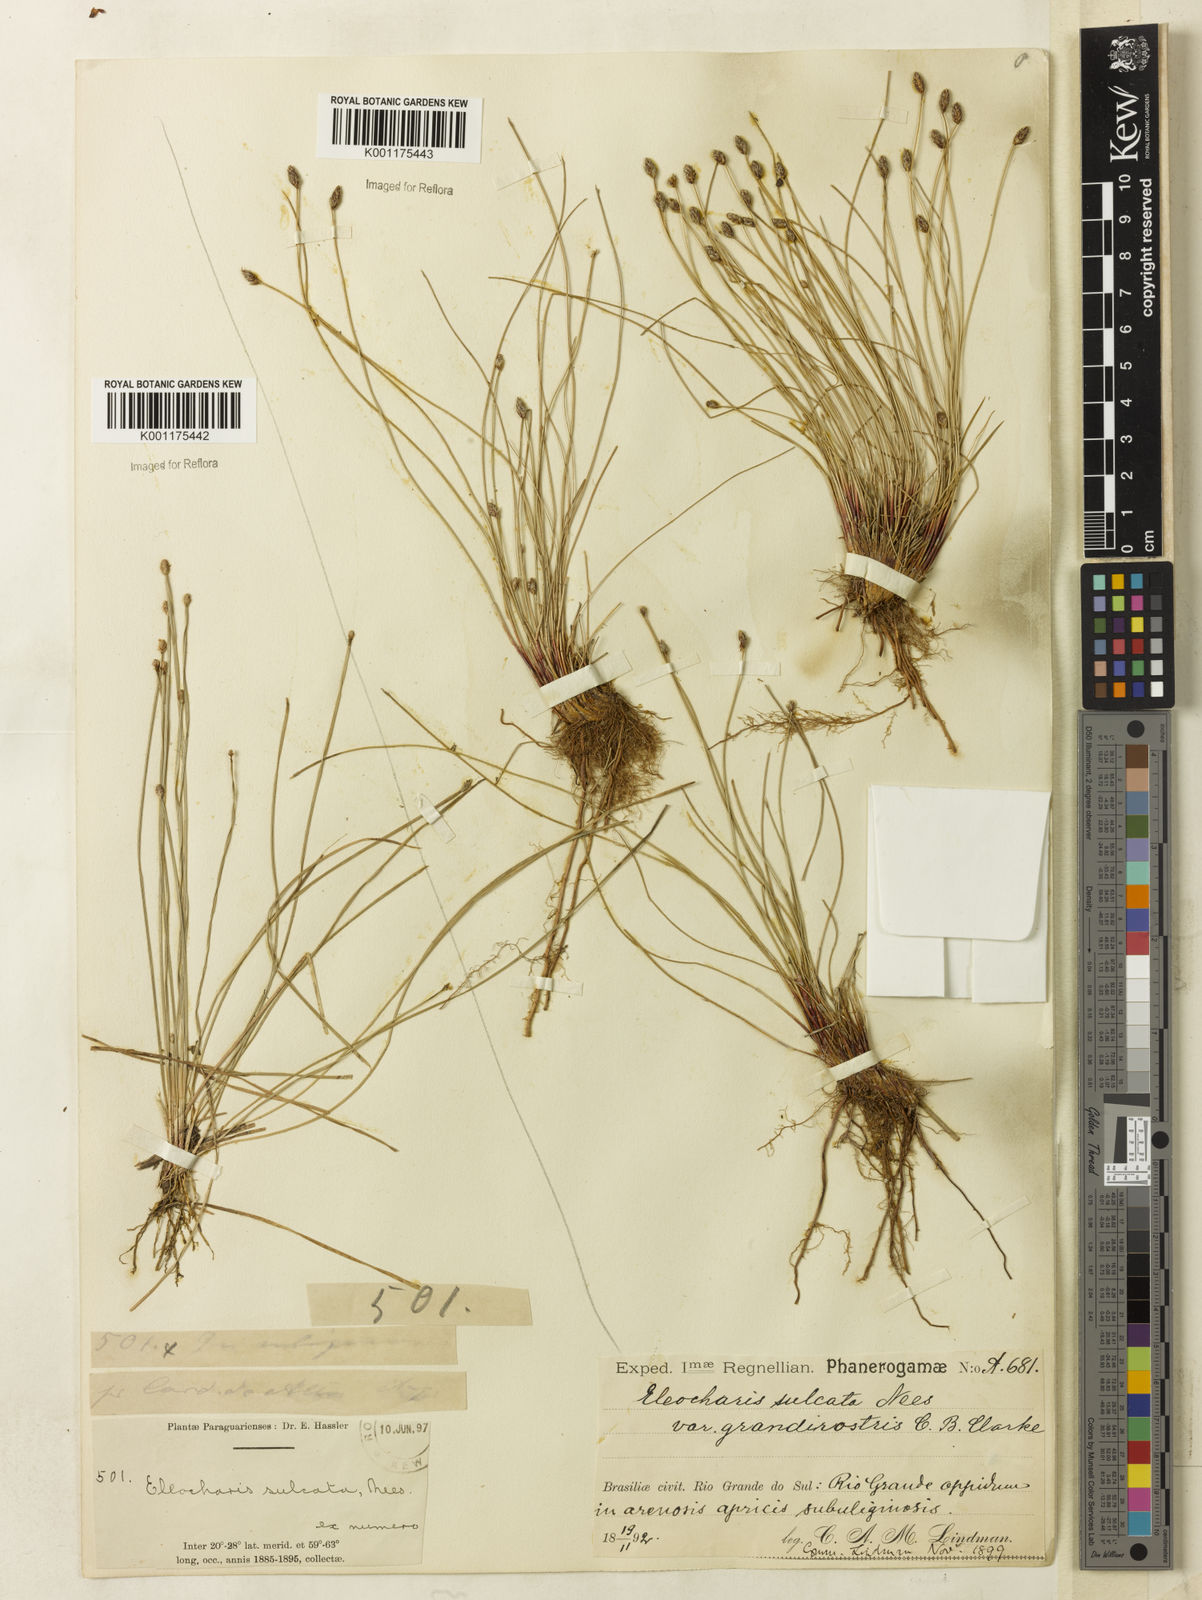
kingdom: Plantae
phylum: Tracheophyta
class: Liliopsida
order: Poales
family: Cyperaceae
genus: Eleocharis
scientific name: Eleocharis filiculmis
